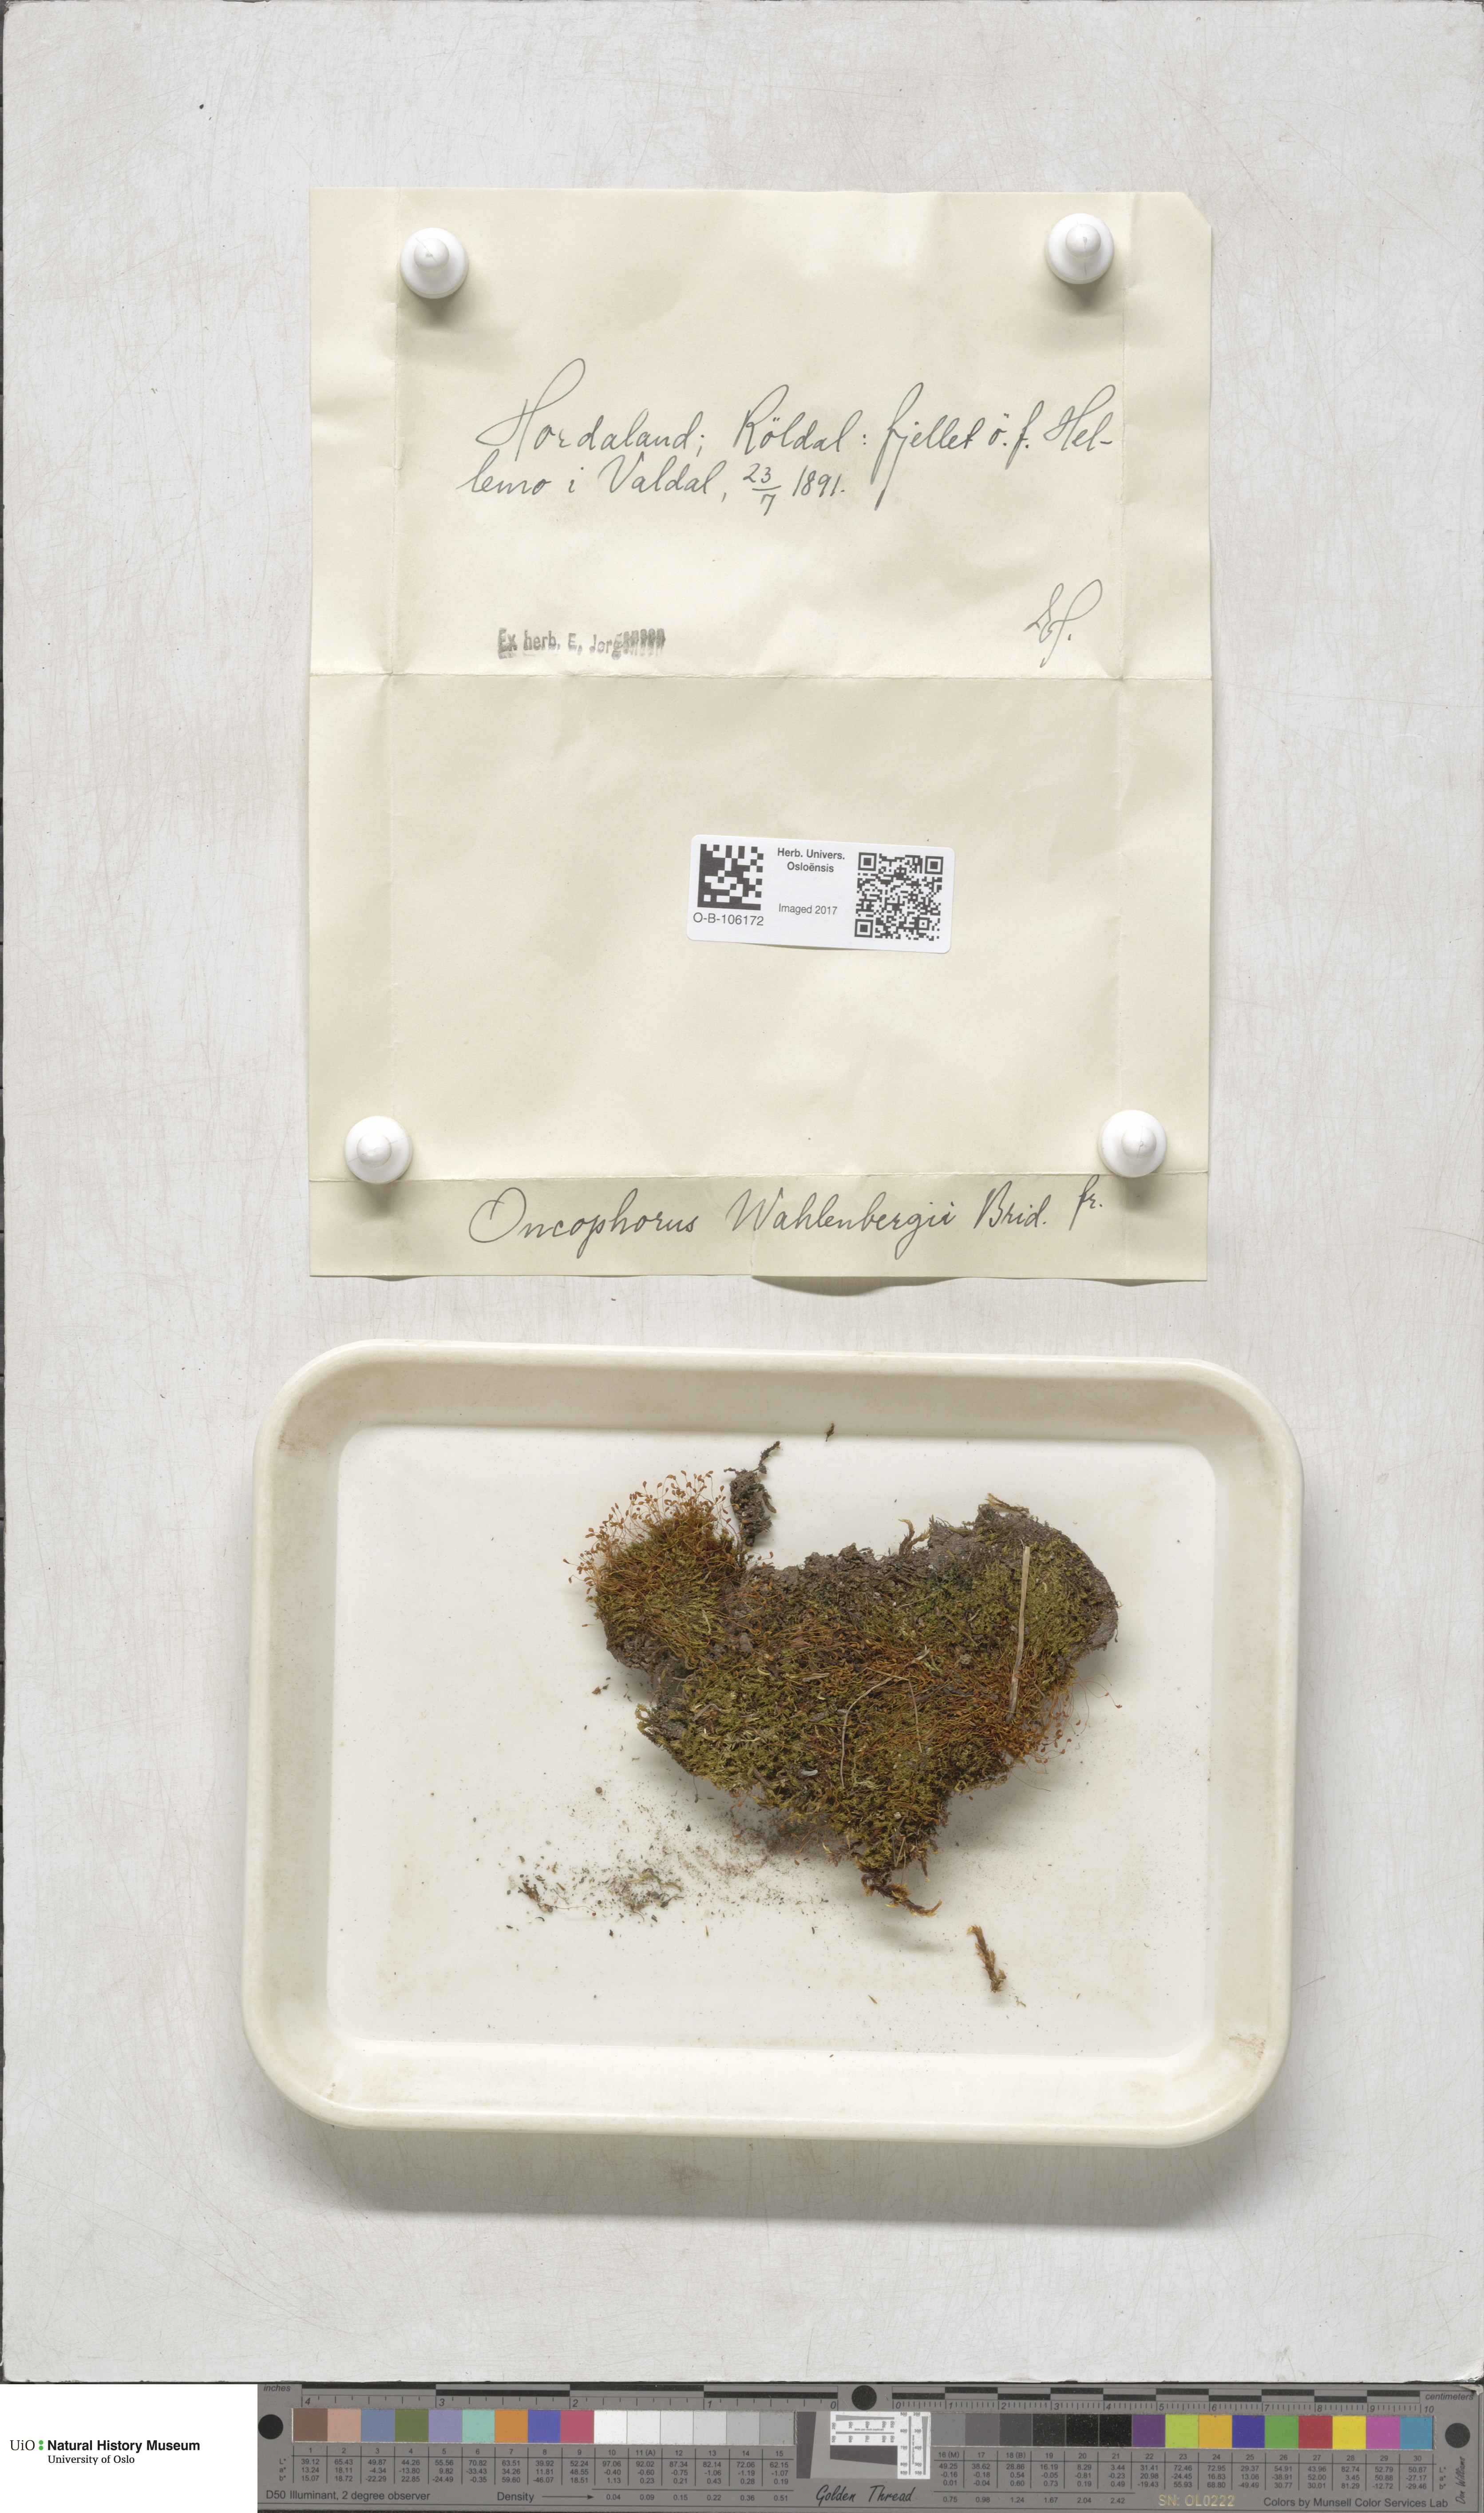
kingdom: Plantae
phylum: Bryophyta
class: Bryopsida
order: Dicranales
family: Rhabdoweisiaceae
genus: Brideliella
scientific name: Brideliella wahlenbergii
